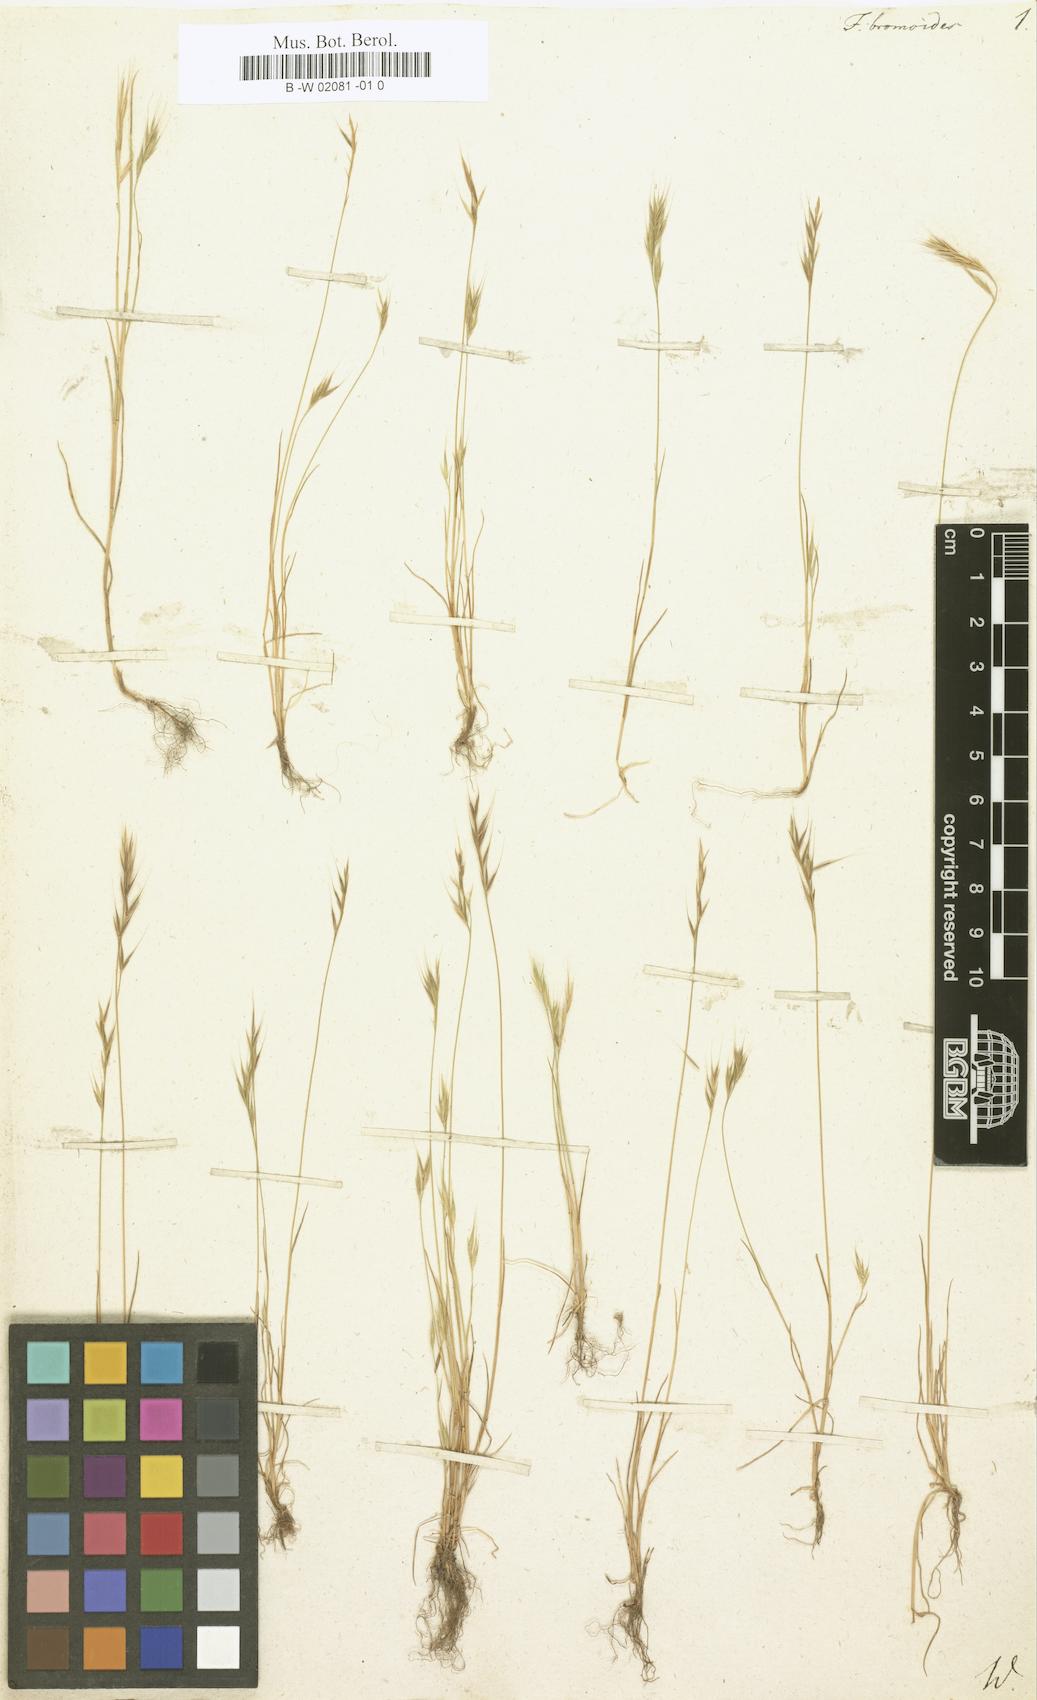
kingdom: Plantae
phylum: Tracheophyta
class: Liliopsida
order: Poales
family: Poaceae
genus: Festuca
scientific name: Festuca bromoides
